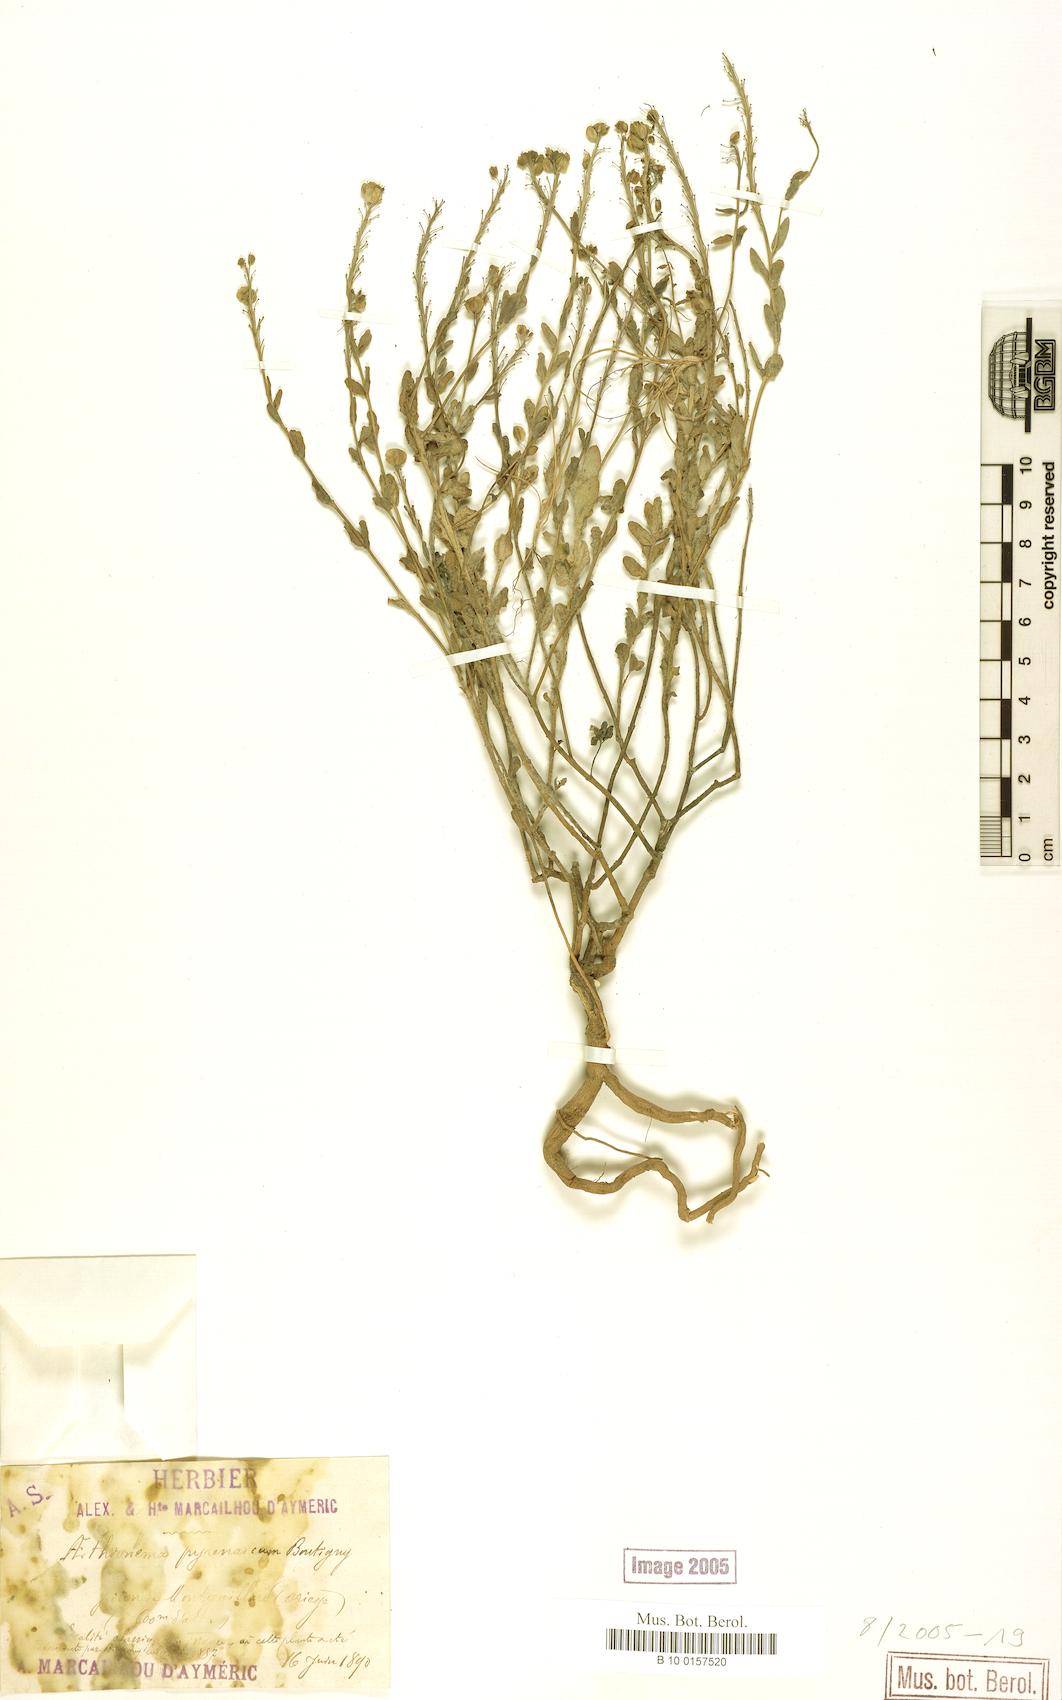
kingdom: Plantae
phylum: Tracheophyta
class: Magnoliopsida
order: Brassicales
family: Brassicaceae
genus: Aethionema
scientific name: Aethionema saxatile
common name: Burnt candytuft
